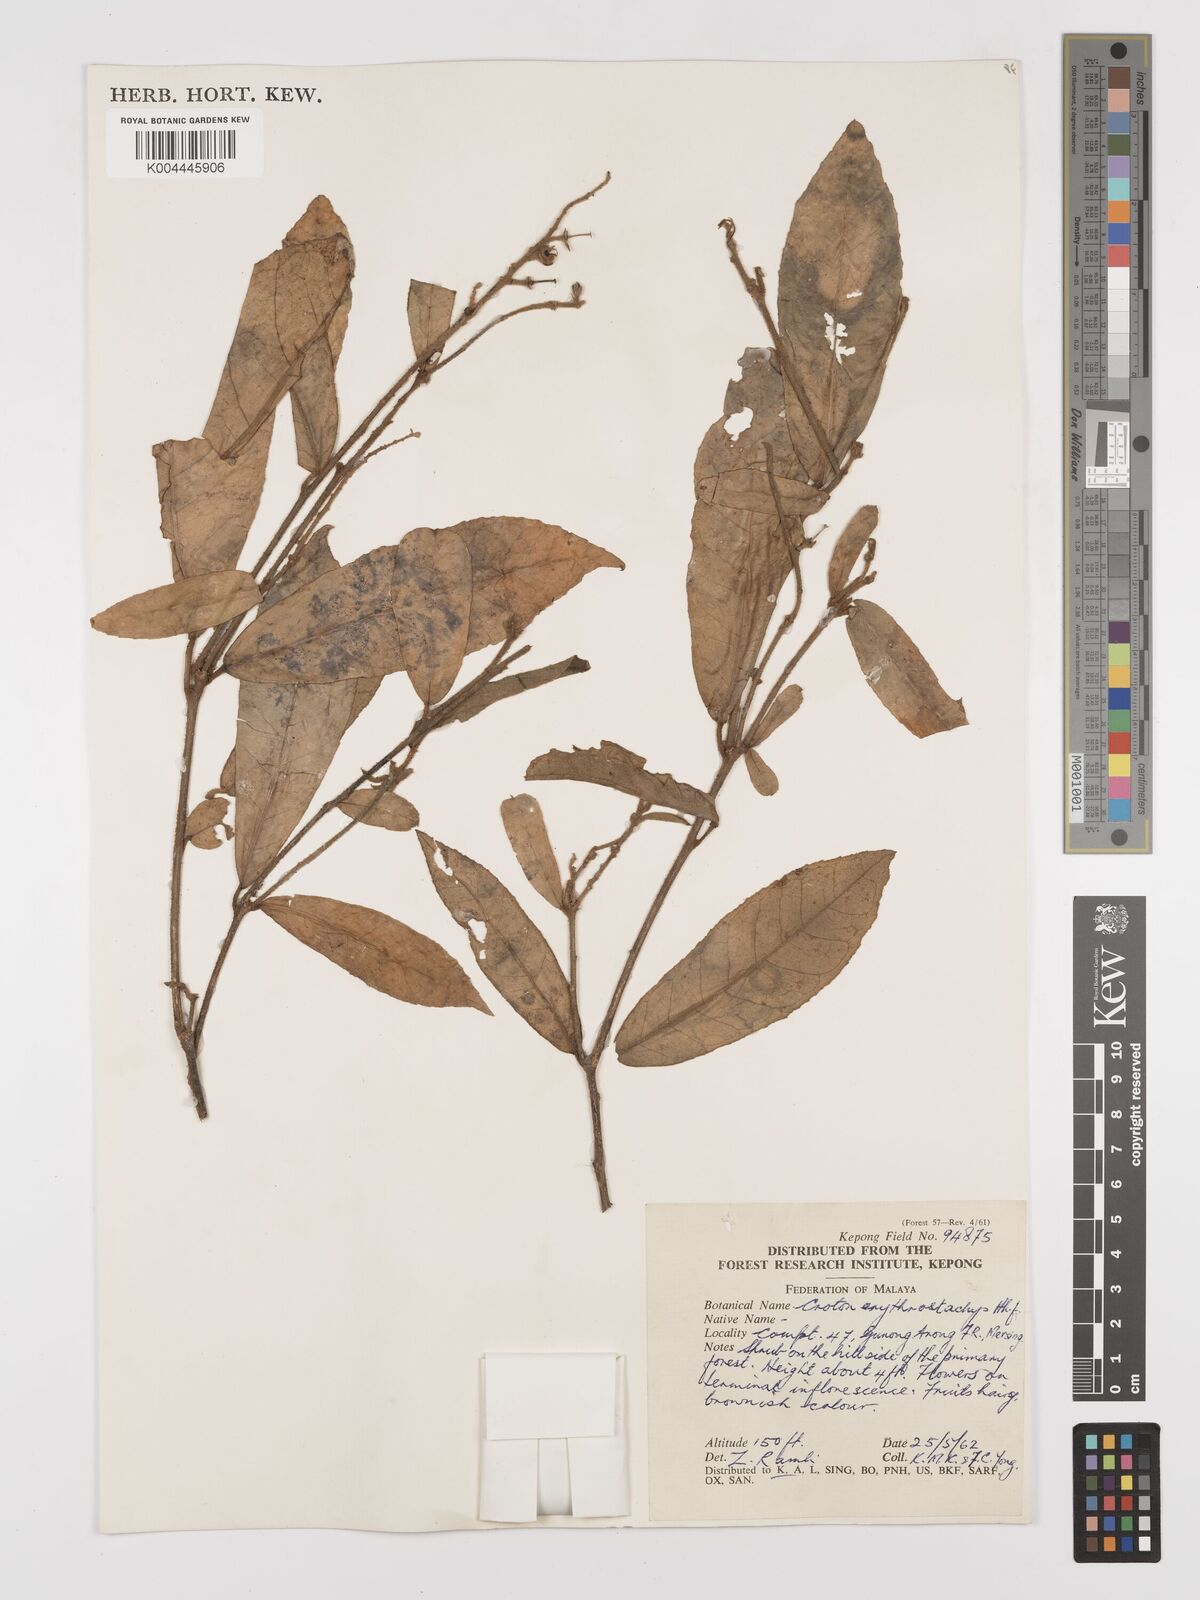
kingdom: Plantae
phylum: Tracheophyta
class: Magnoliopsida
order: Malpighiales
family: Euphorbiaceae
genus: Croton
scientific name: Croton erythrostachys
